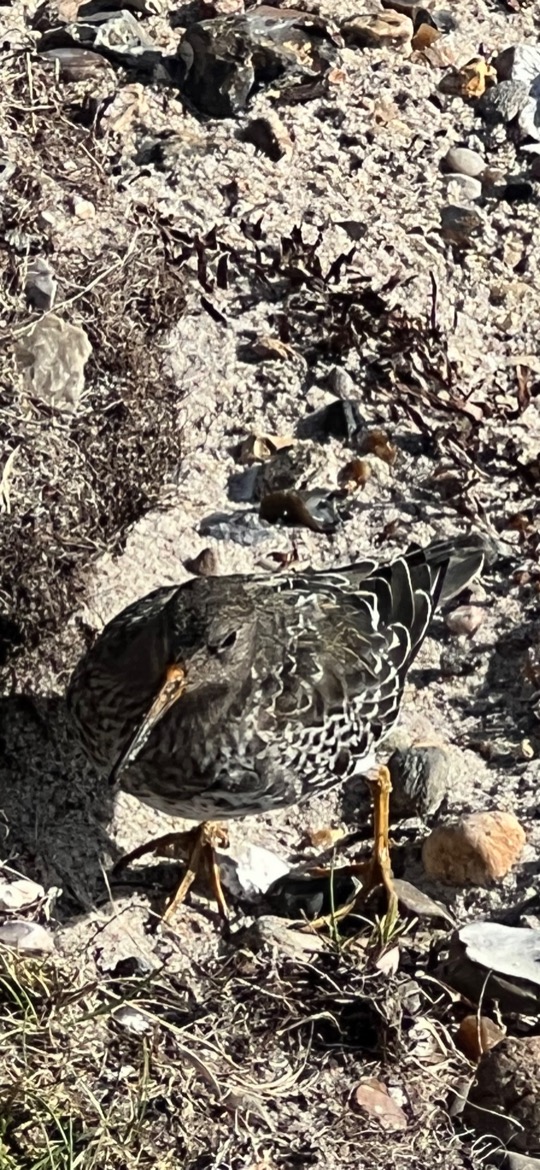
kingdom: Animalia
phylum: Chordata
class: Aves
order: Charadriiformes
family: Scolopacidae
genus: Calidris
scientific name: Calidris maritima
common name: Sortgrå ryle
